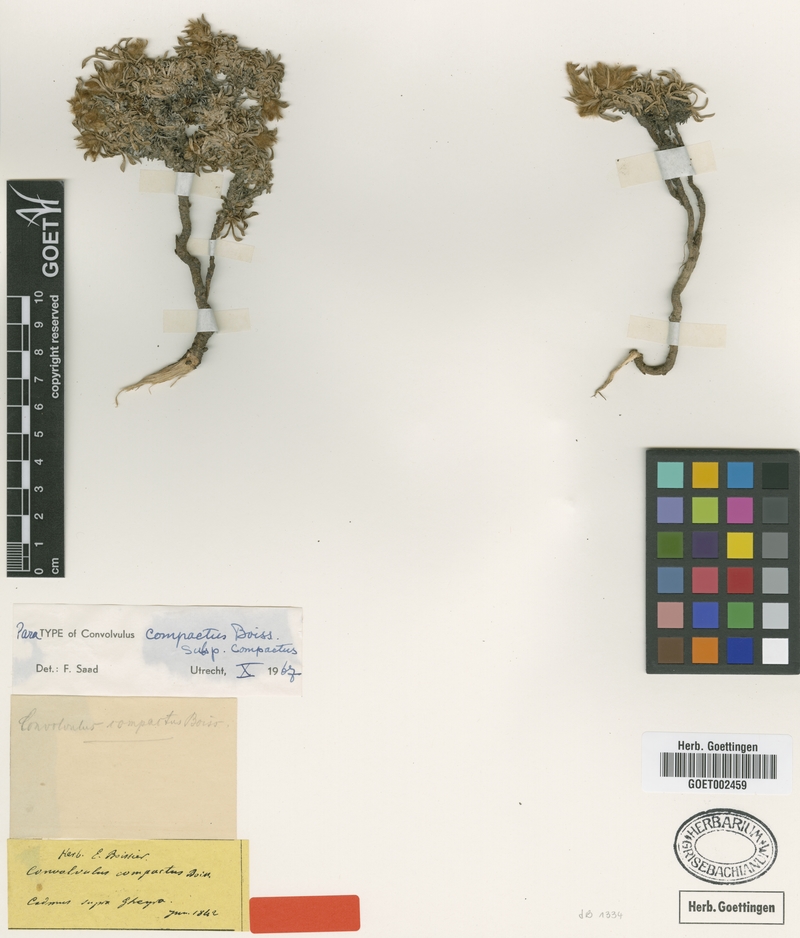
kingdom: Plantae
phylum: Tracheophyta
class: Magnoliopsida
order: Solanales
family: Convolvulaceae
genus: Convolvulus
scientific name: Convolvulus boissieri
